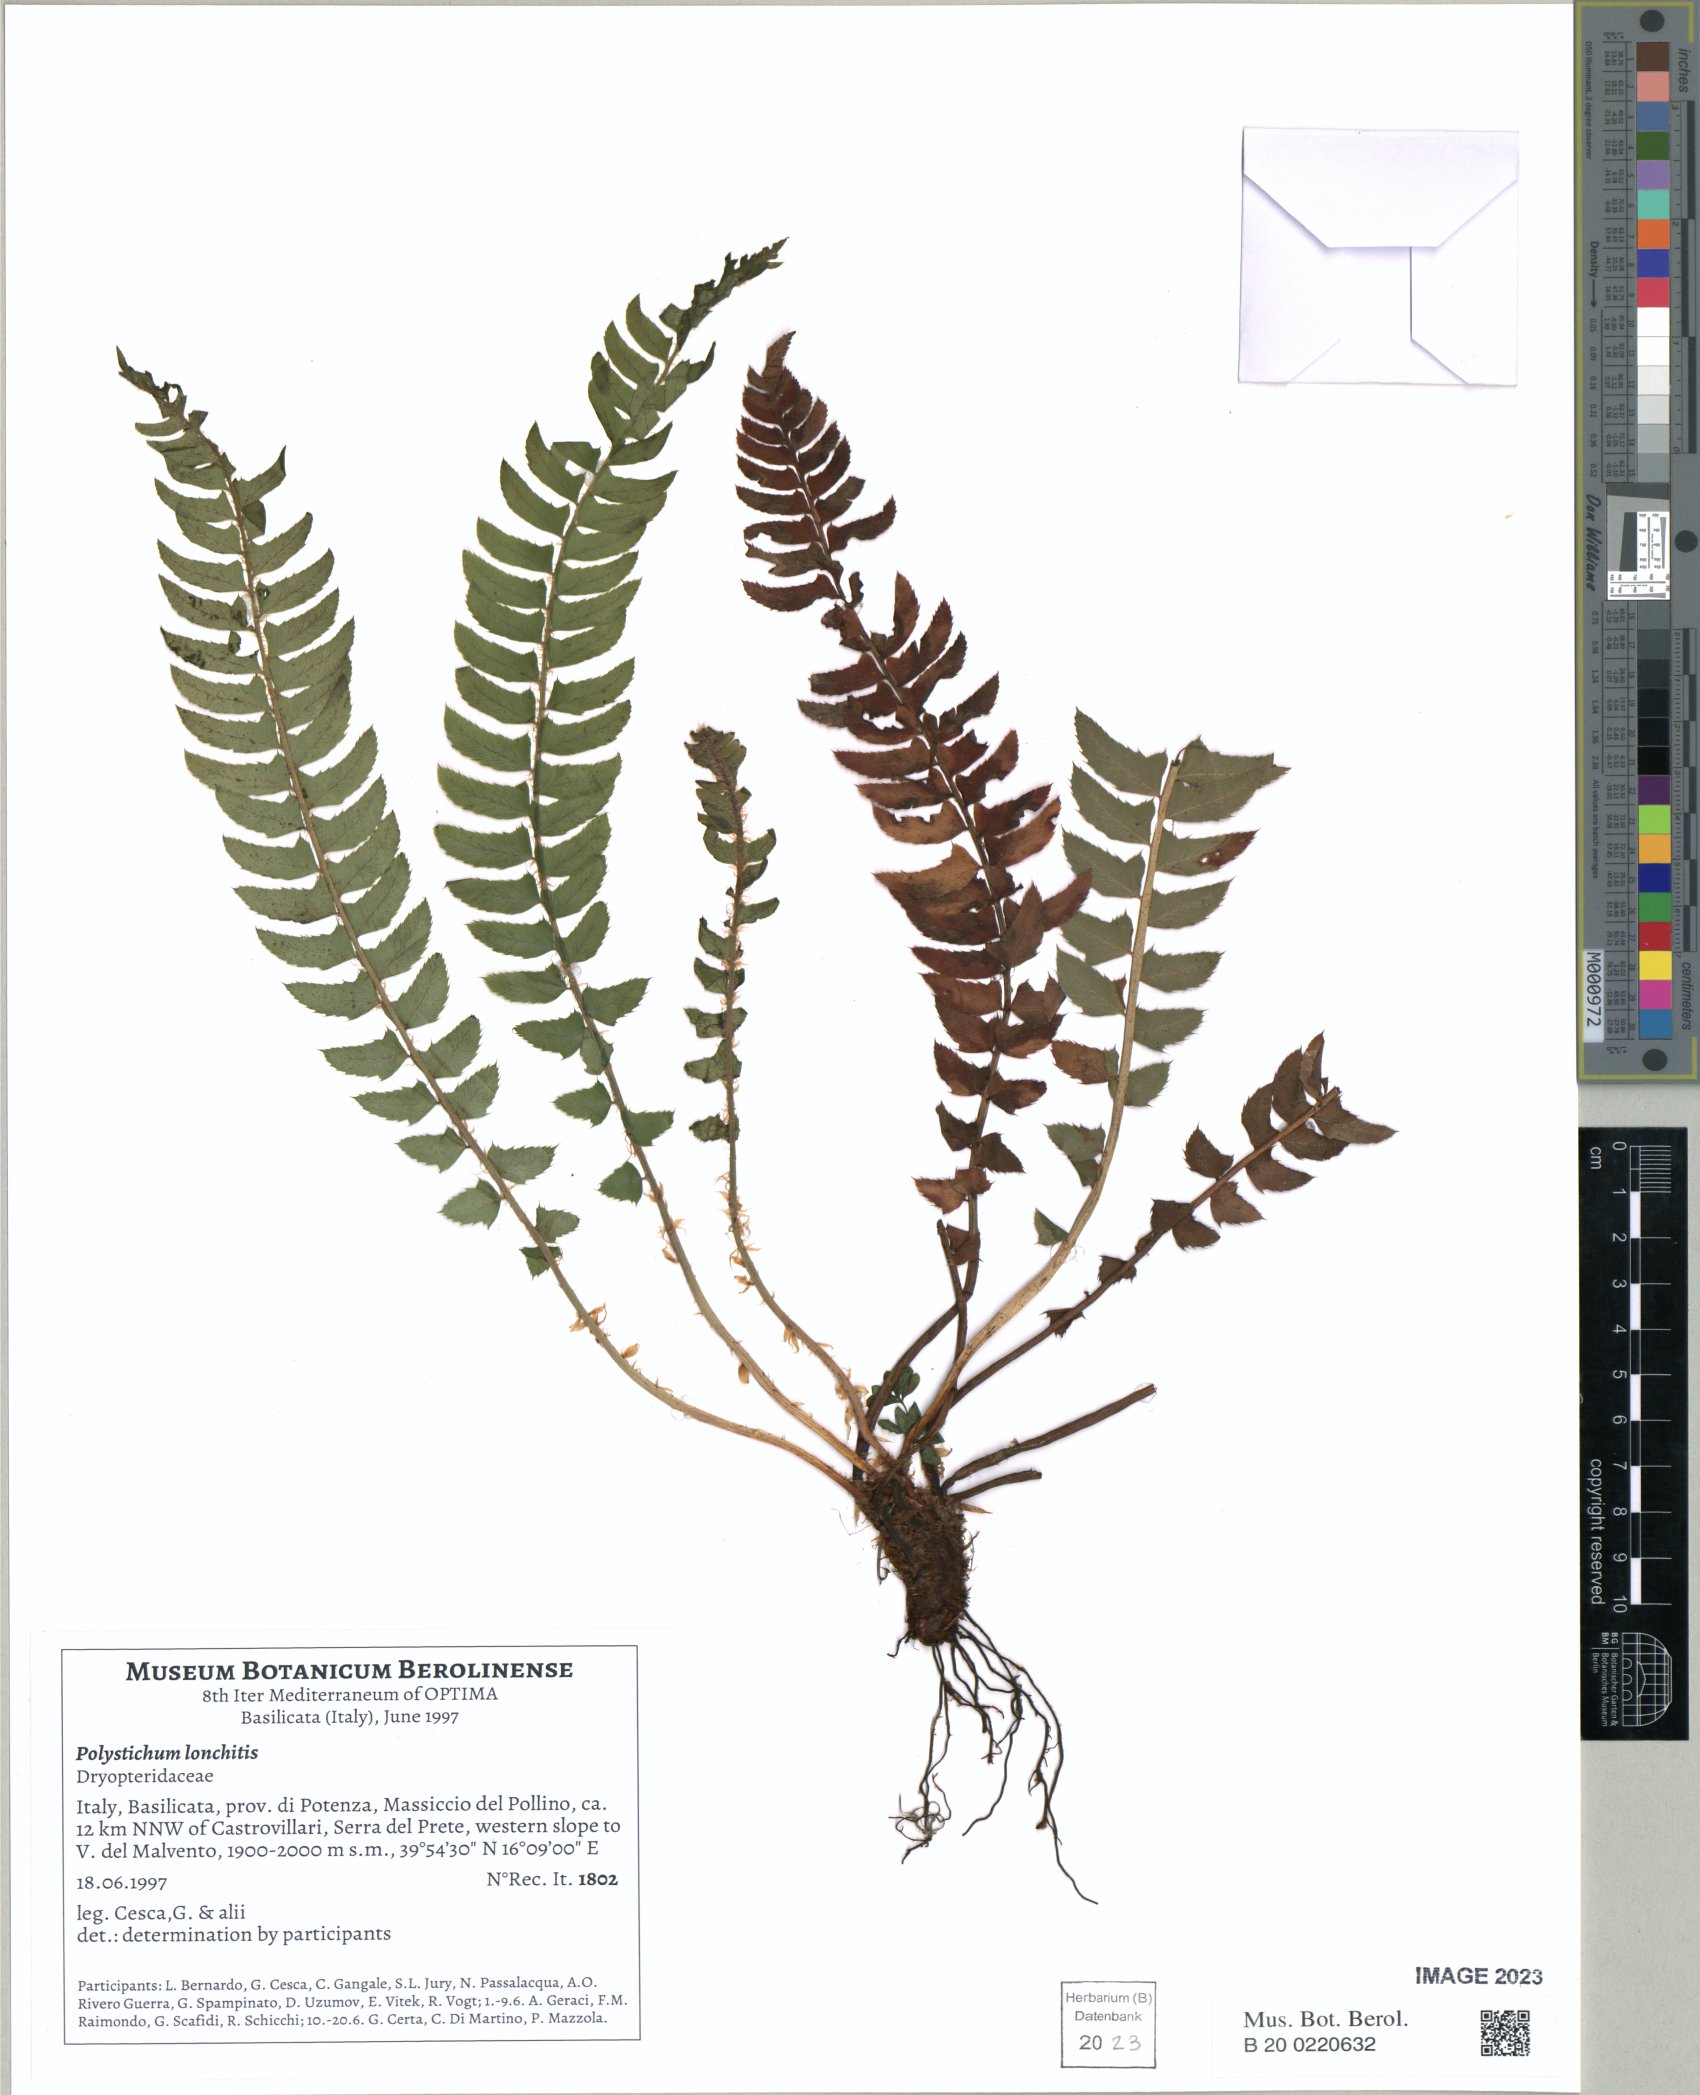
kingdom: Plantae
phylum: Tracheophyta
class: Polypodiopsida
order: Polypodiales
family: Dryopteridaceae
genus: Polystichum
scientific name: Polystichum lonchitis
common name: Holly fern
